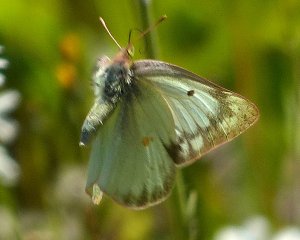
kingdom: Animalia
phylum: Arthropoda
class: Insecta
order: Lepidoptera
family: Pieridae
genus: Colias
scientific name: Colias philodice
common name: Clouded Sulphur
